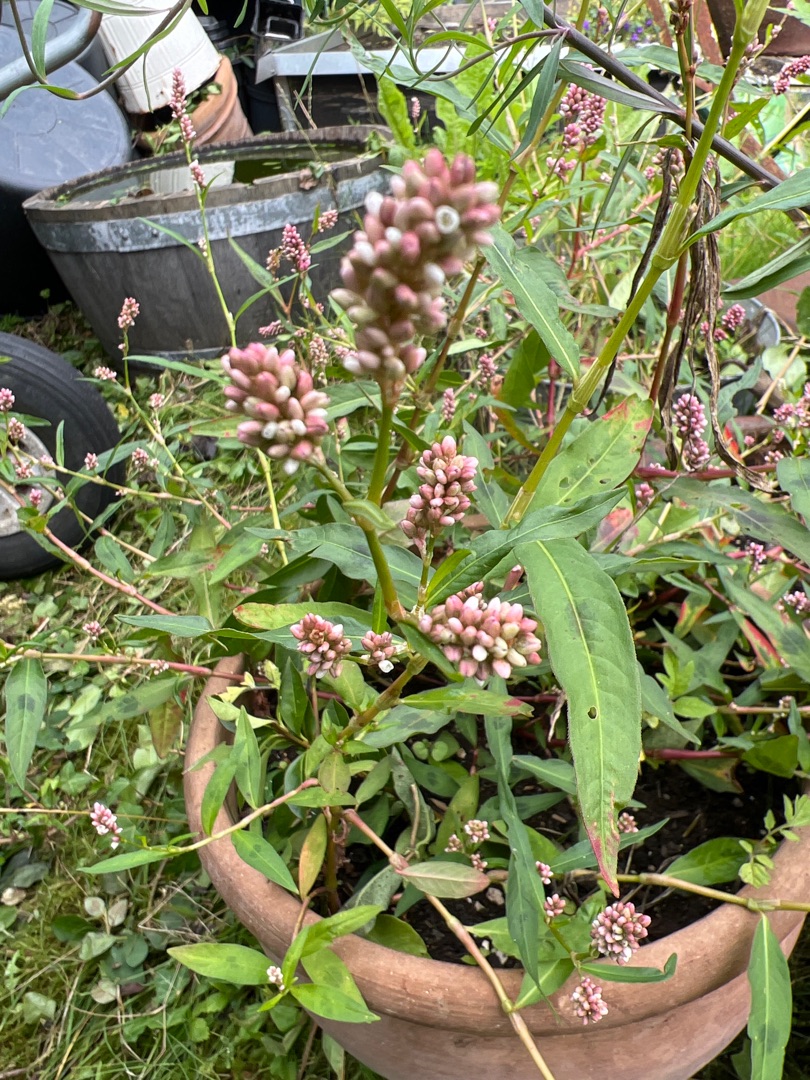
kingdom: Plantae
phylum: Tracheophyta
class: Magnoliopsida
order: Caryophyllales
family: Polygonaceae
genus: Persicaria
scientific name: Persicaria maculosa
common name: Fersken-pileurt
